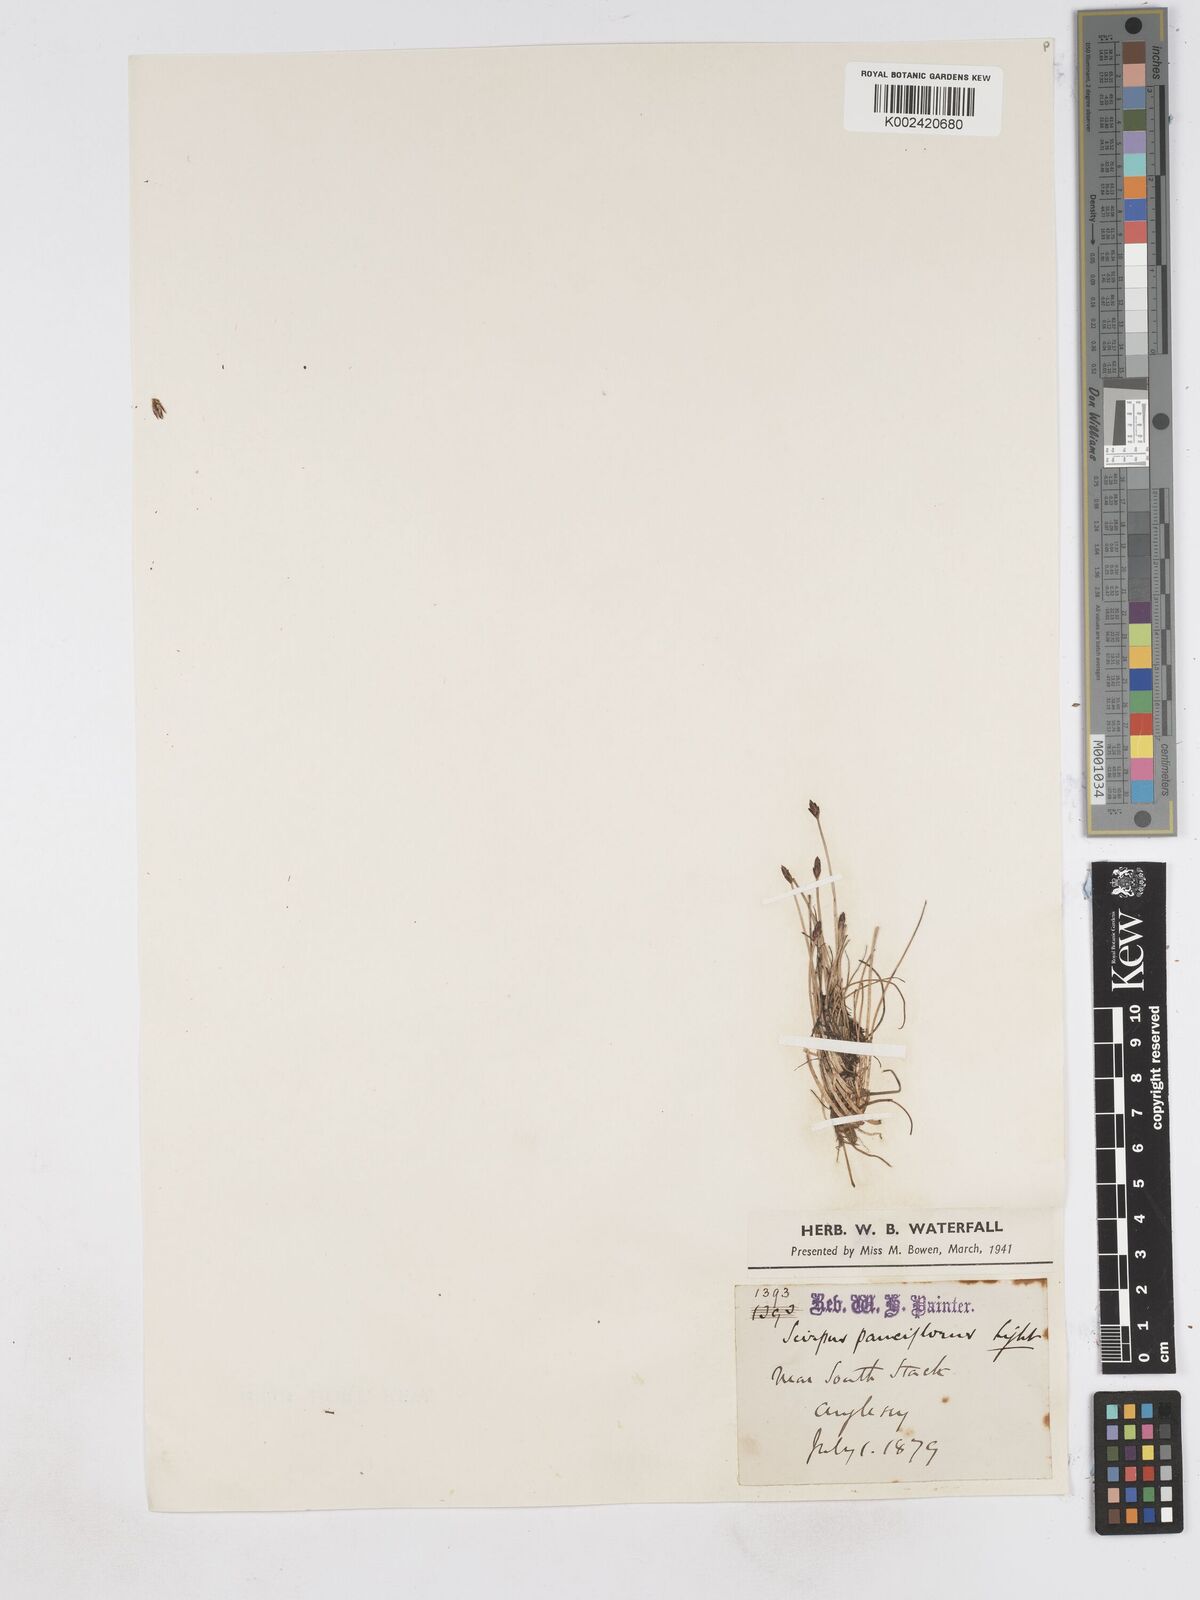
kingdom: Plantae
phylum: Tracheophyta
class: Liliopsida
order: Poales
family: Cyperaceae
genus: Eleocharis
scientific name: Eleocharis quinqueflora
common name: Few-flowered spike-rush
